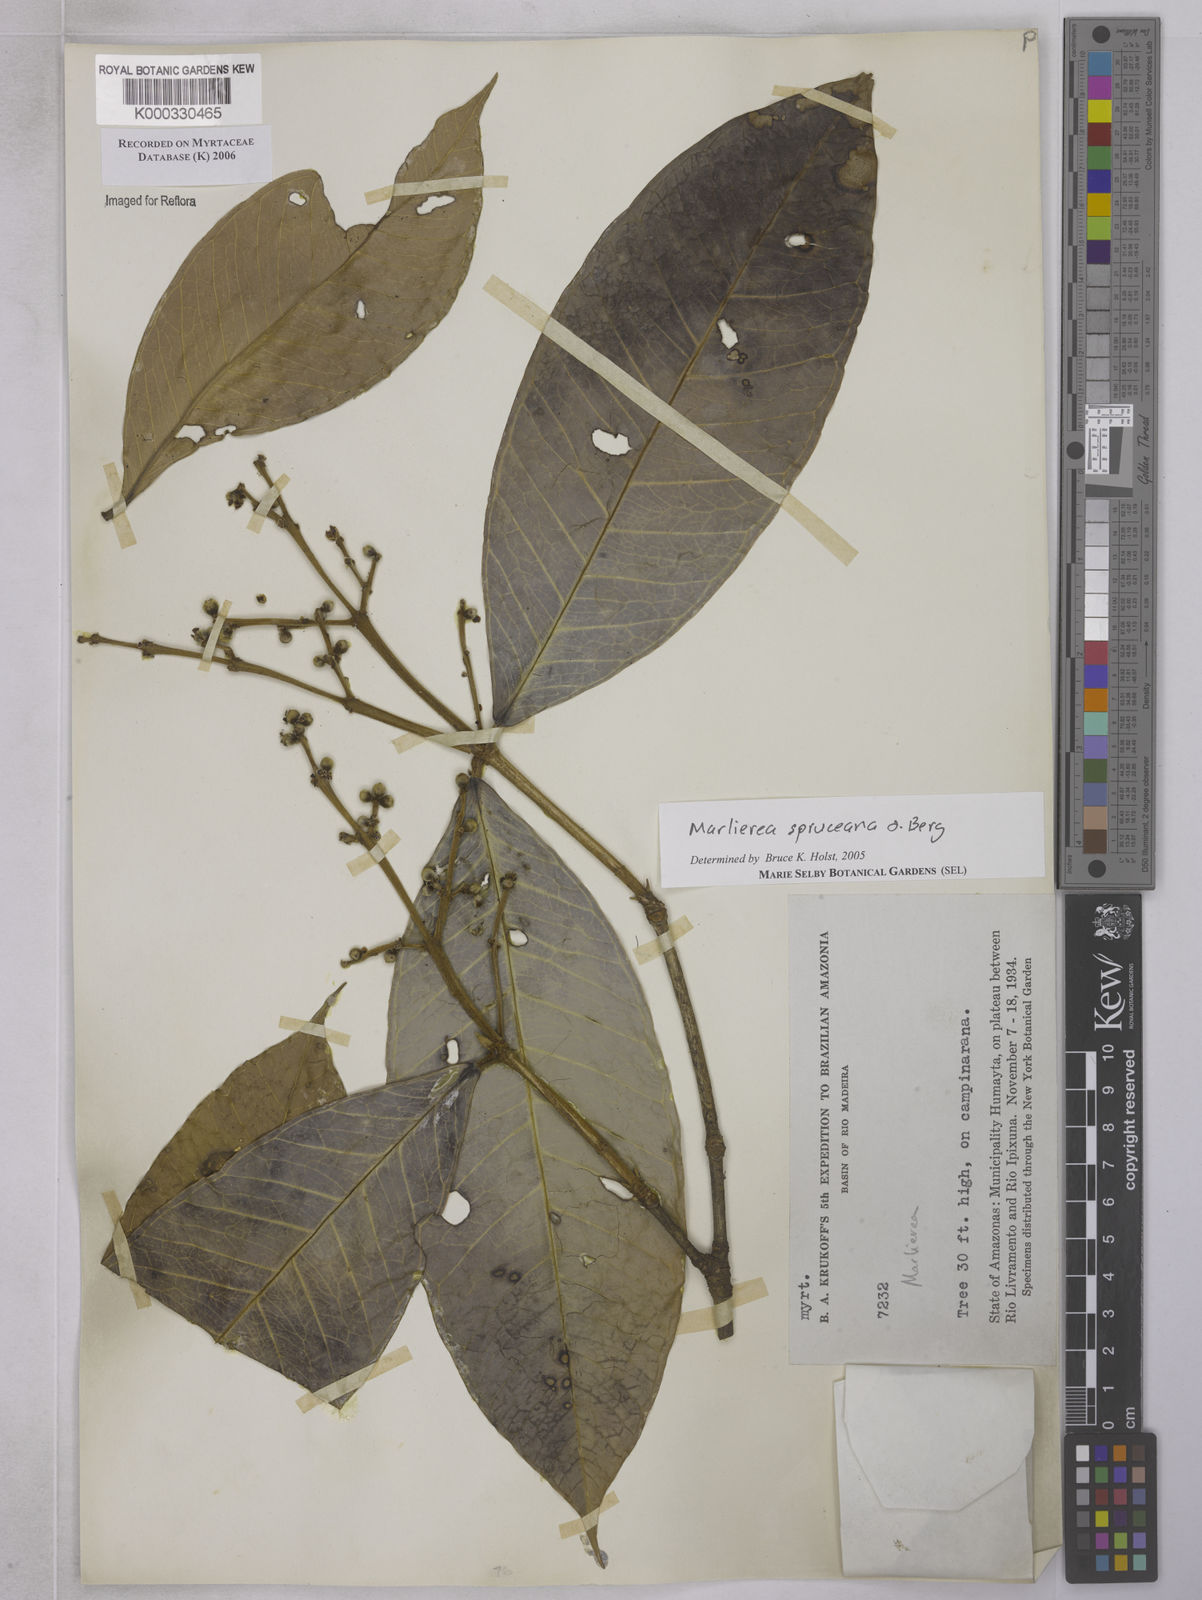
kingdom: Plantae
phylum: Tracheophyta
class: Magnoliopsida
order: Myrtales
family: Myrtaceae
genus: Myrcia
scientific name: Myrcia argentigemma
